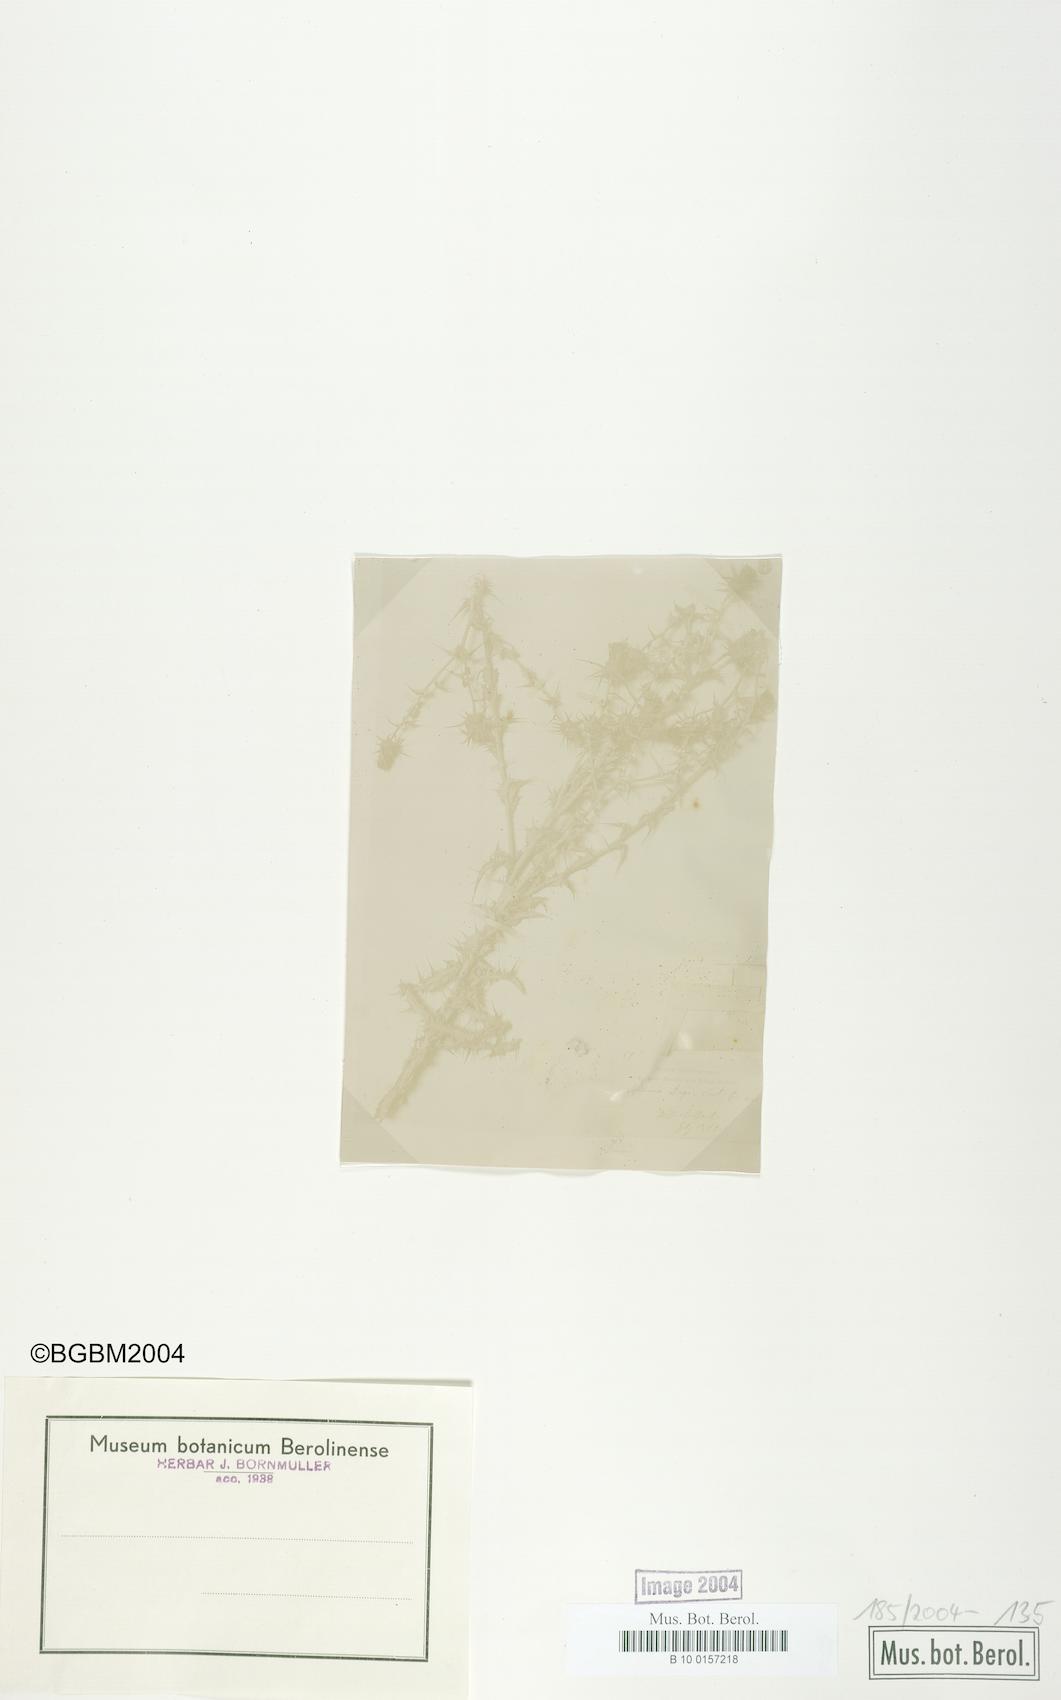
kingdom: Plantae
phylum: Tracheophyta
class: Magnoliopsida
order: Asterales
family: Asteraceae
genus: Cousinia
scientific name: Cousinia libanotica
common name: Lebanon cousinia
